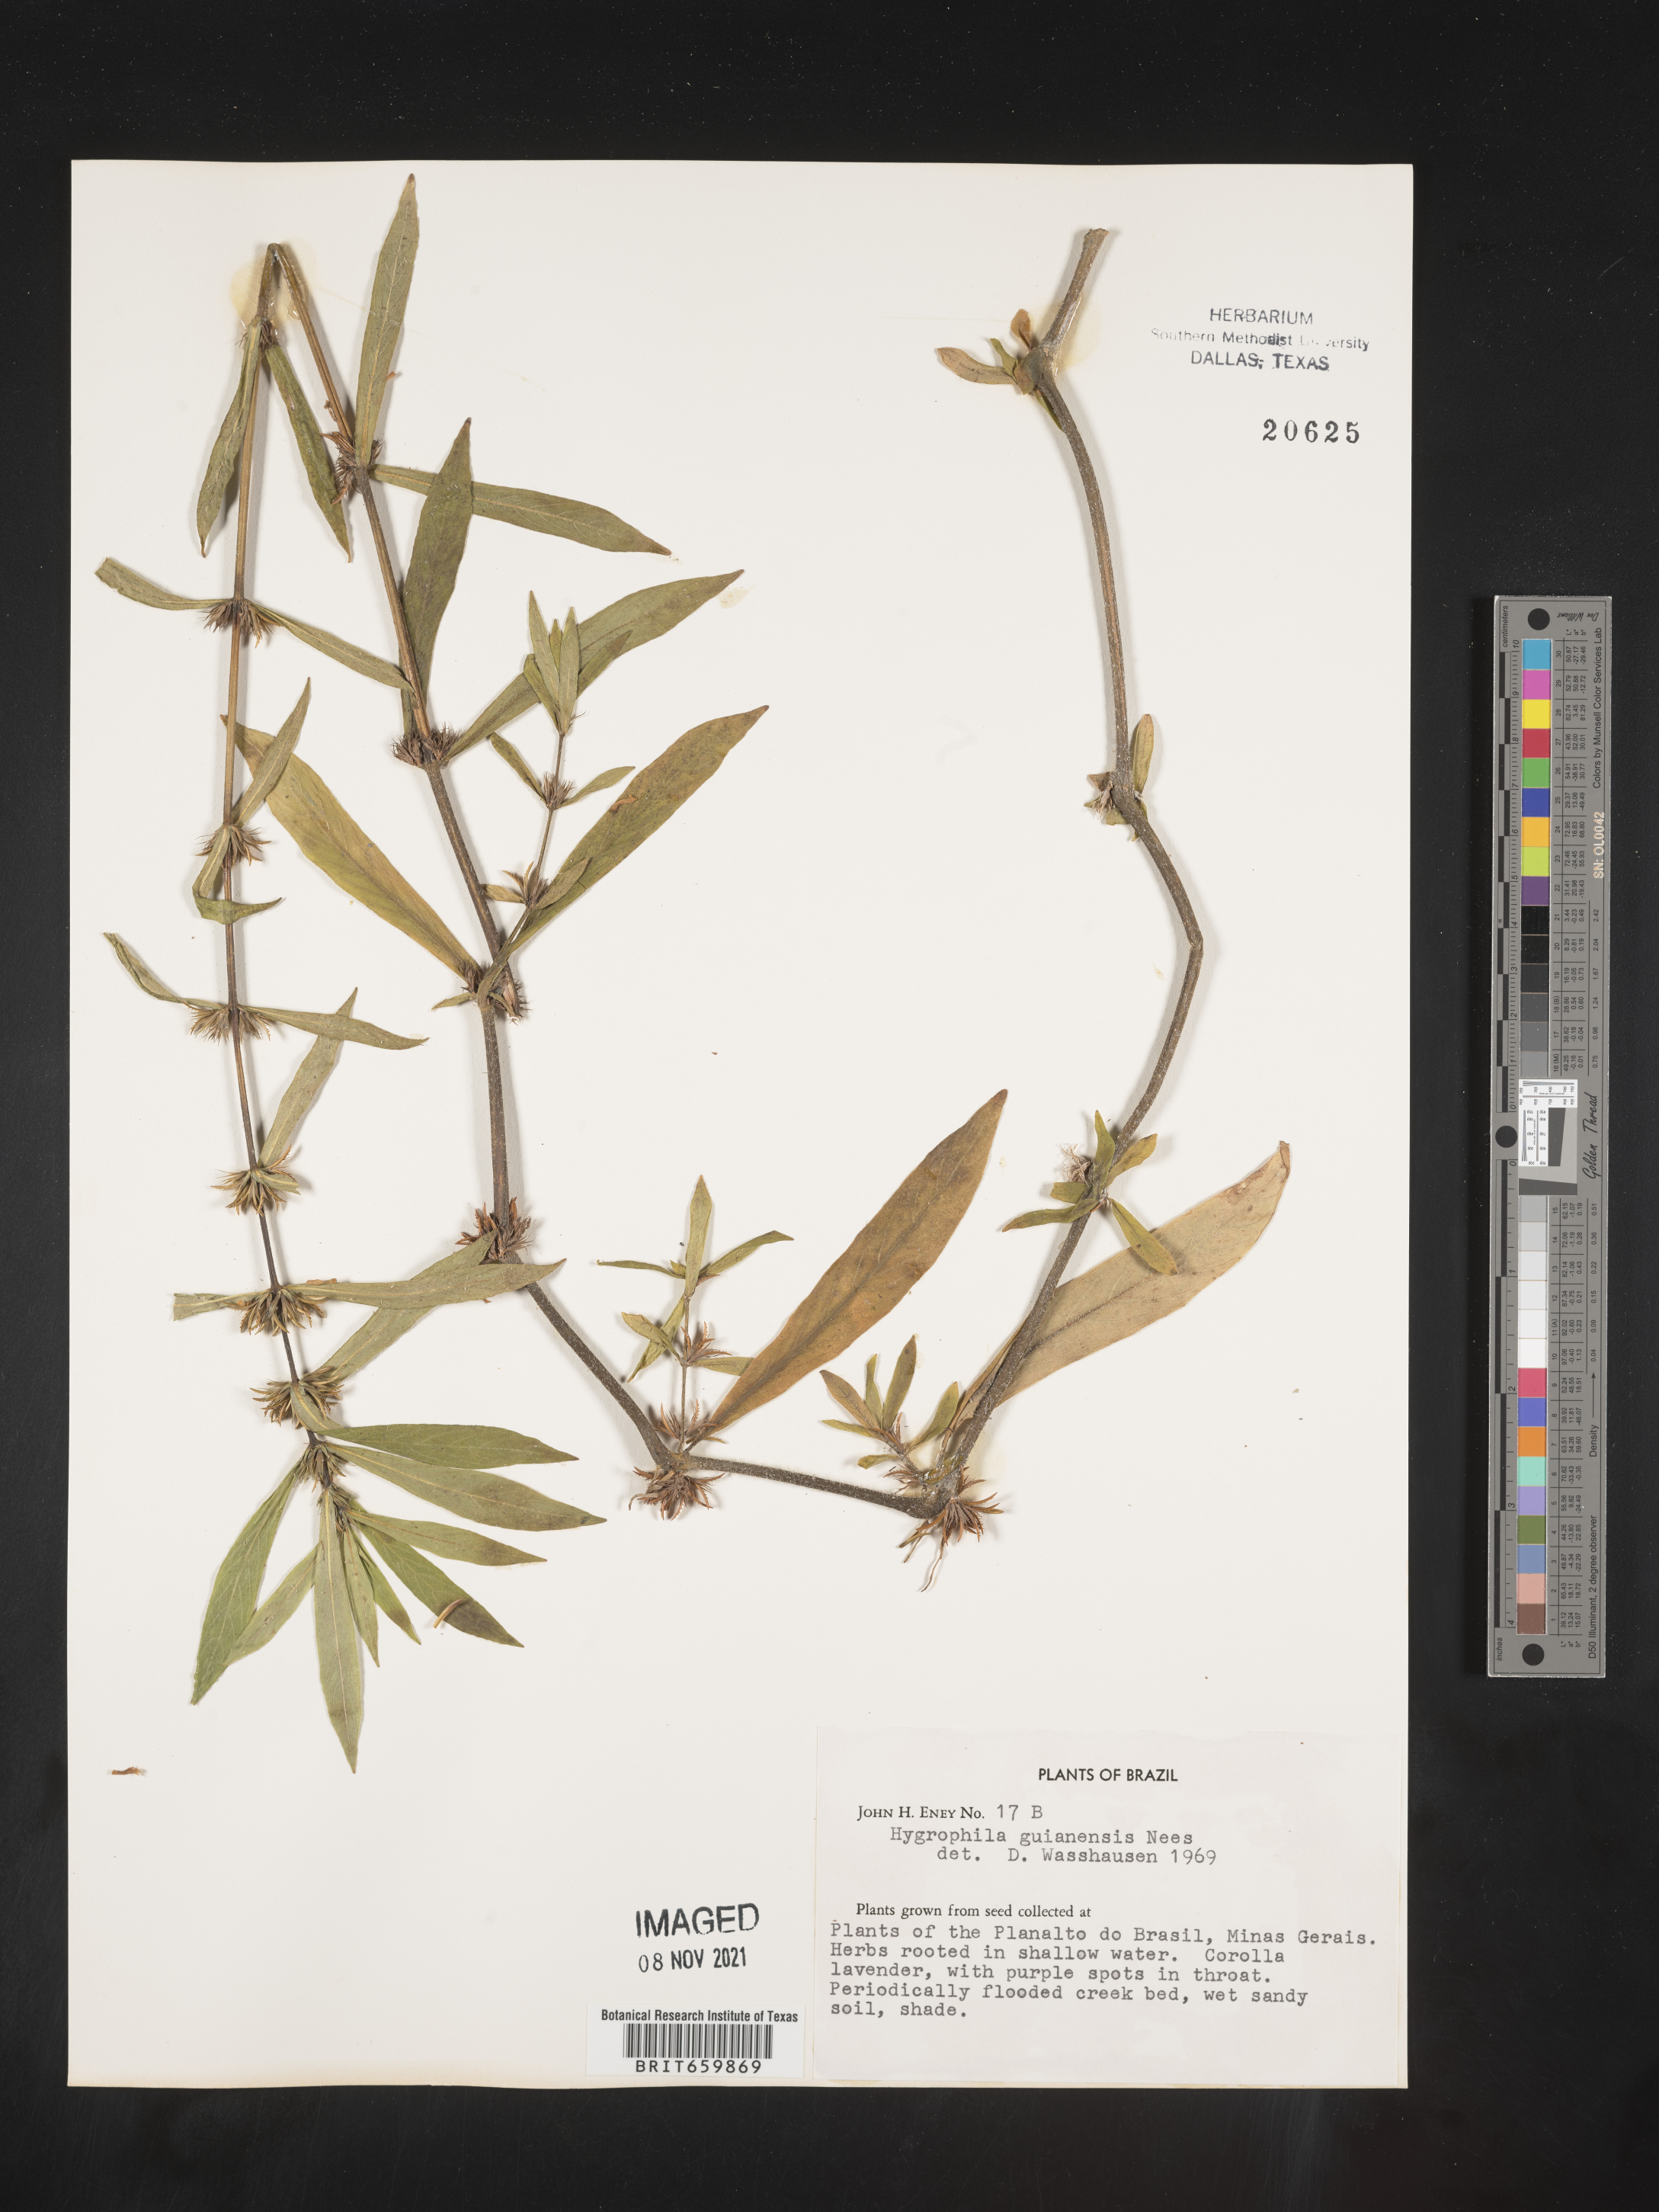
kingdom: Plantae
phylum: Tracheophyta
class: Magnoliopsida
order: Lamiales
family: Acanthaceae
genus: Hygrophila
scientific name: Hygrophila
